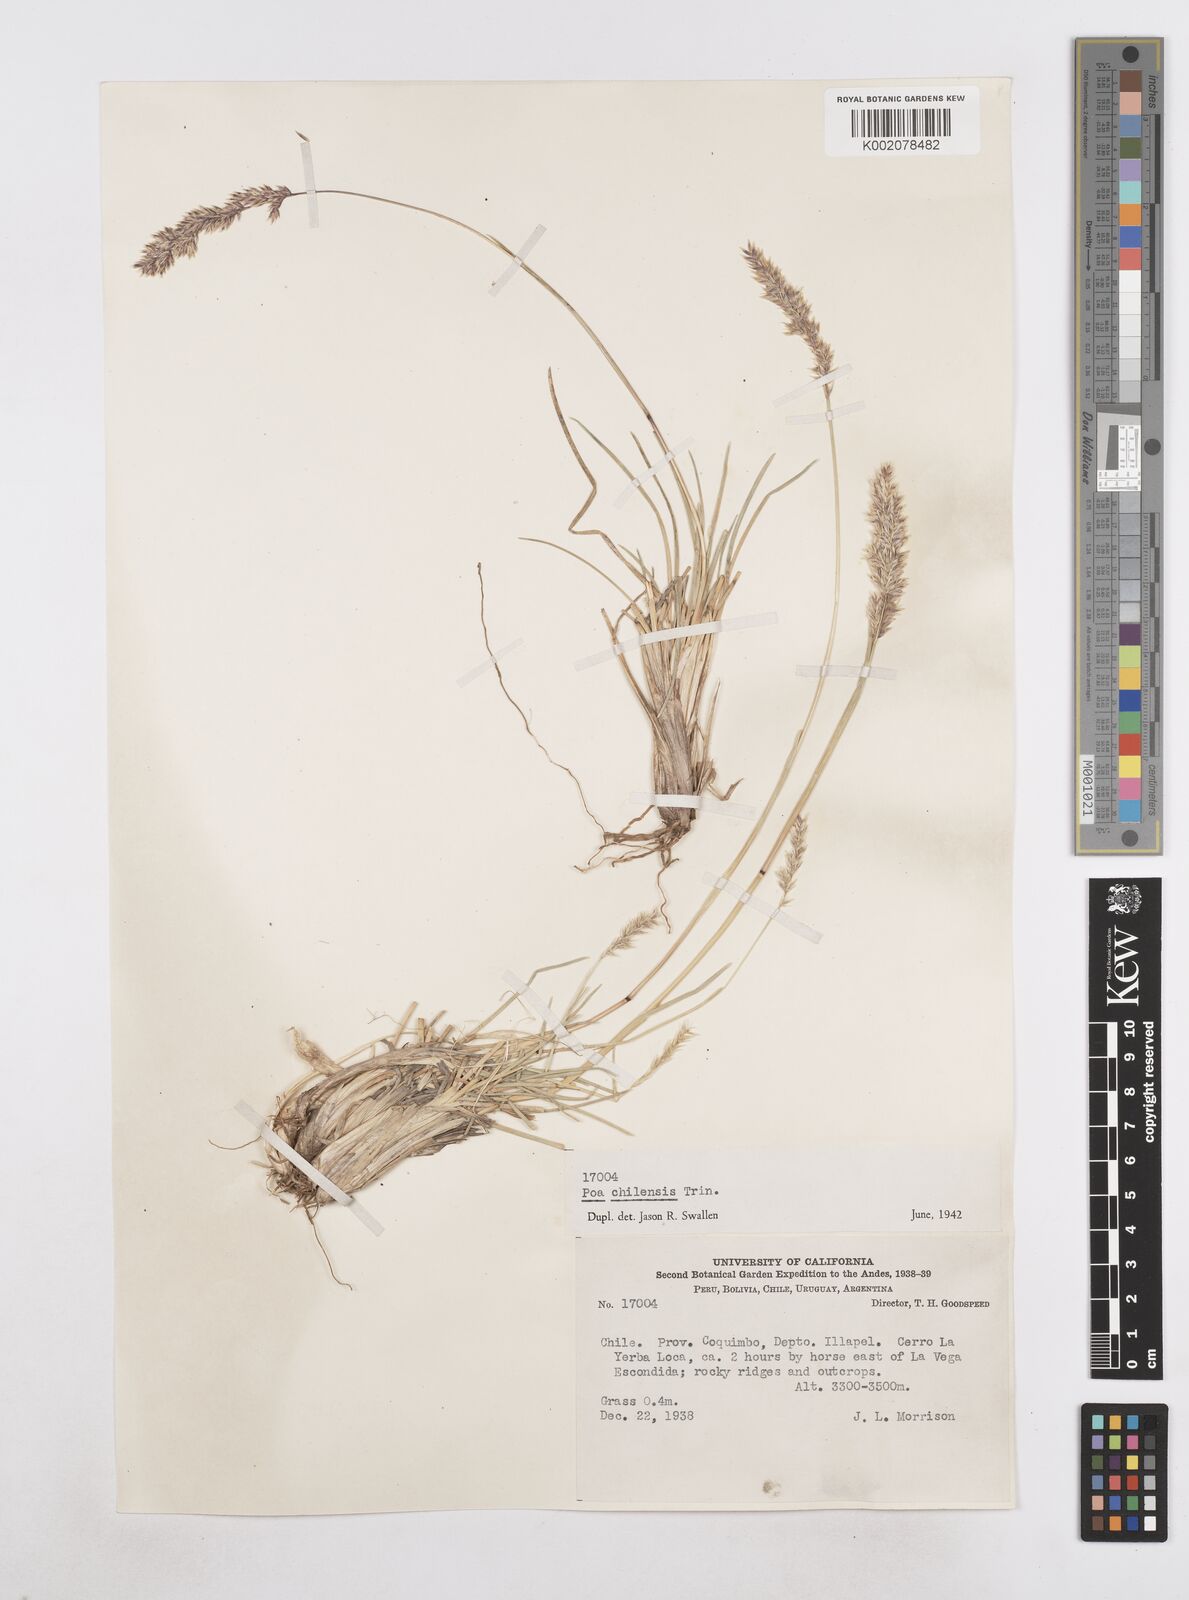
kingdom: Plantae
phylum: Tracheophyta
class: Liliopsida
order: Poales
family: Poaceae
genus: Poa
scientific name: Poa denudata
